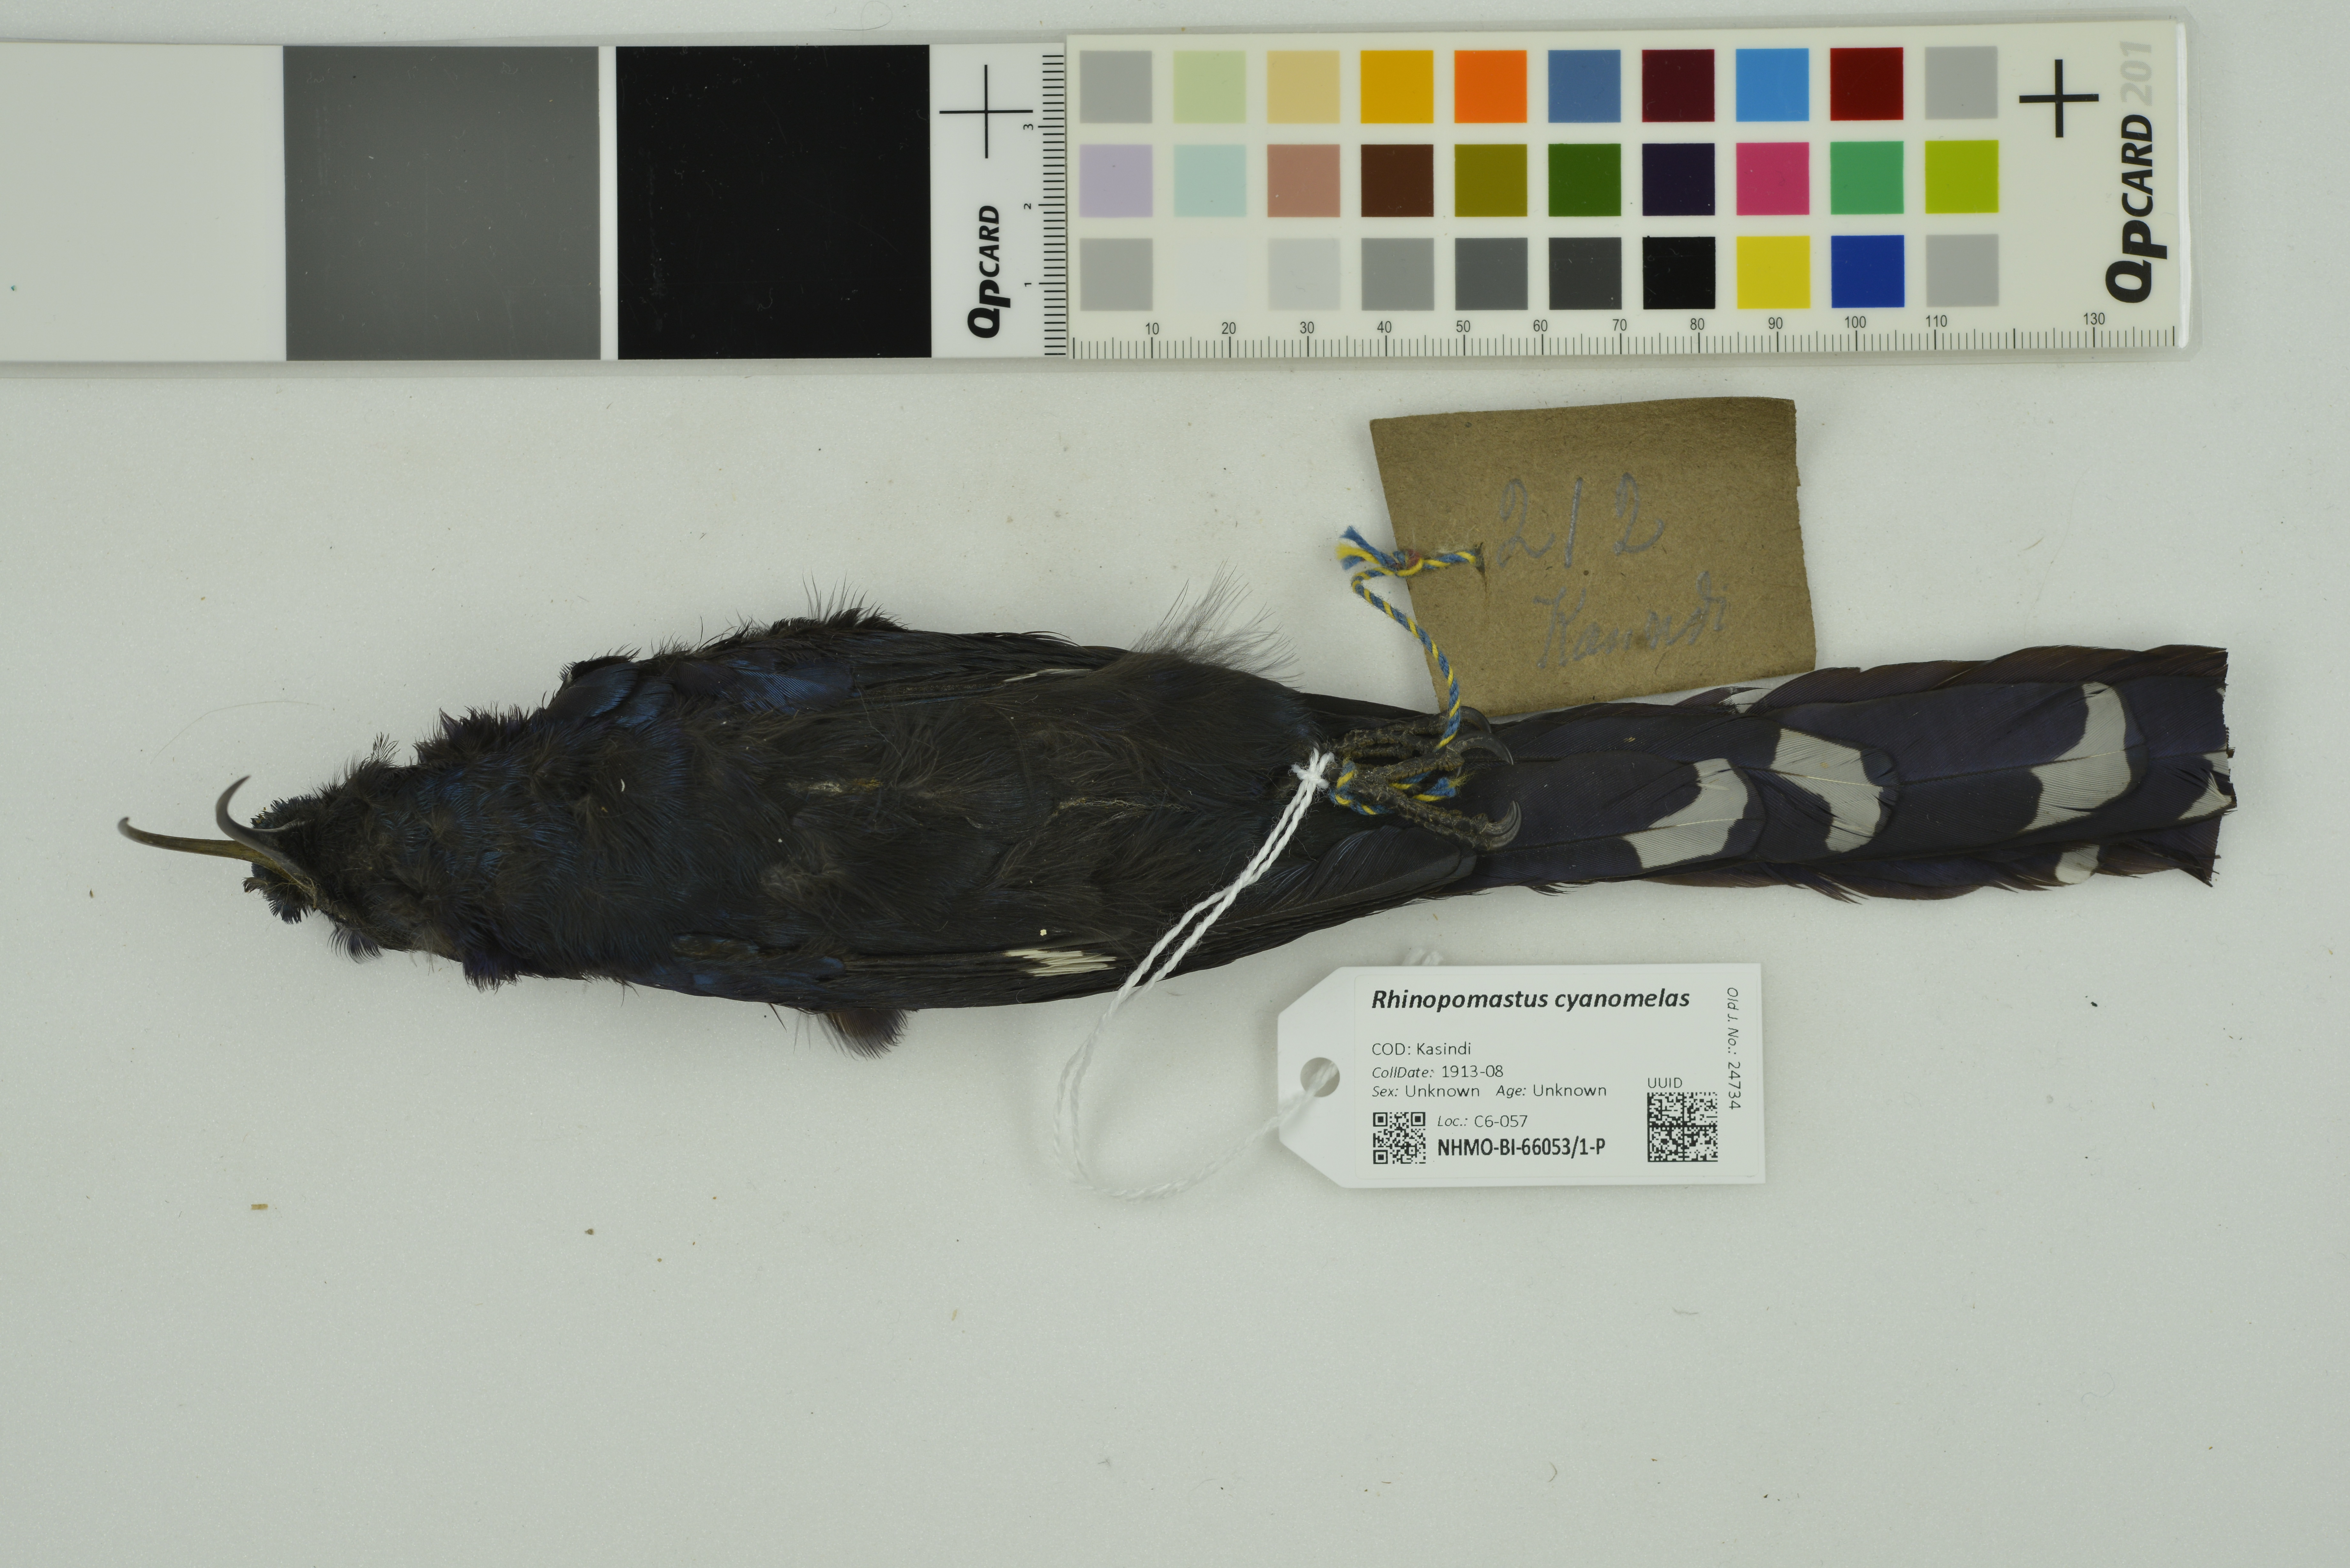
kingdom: Animalia
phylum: Chordata
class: Aves
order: Bucerotiformes
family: Phoeniculidae
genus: Rhinopomastus
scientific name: Rhinopomastus cyanomelas
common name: Common scimitarbill
